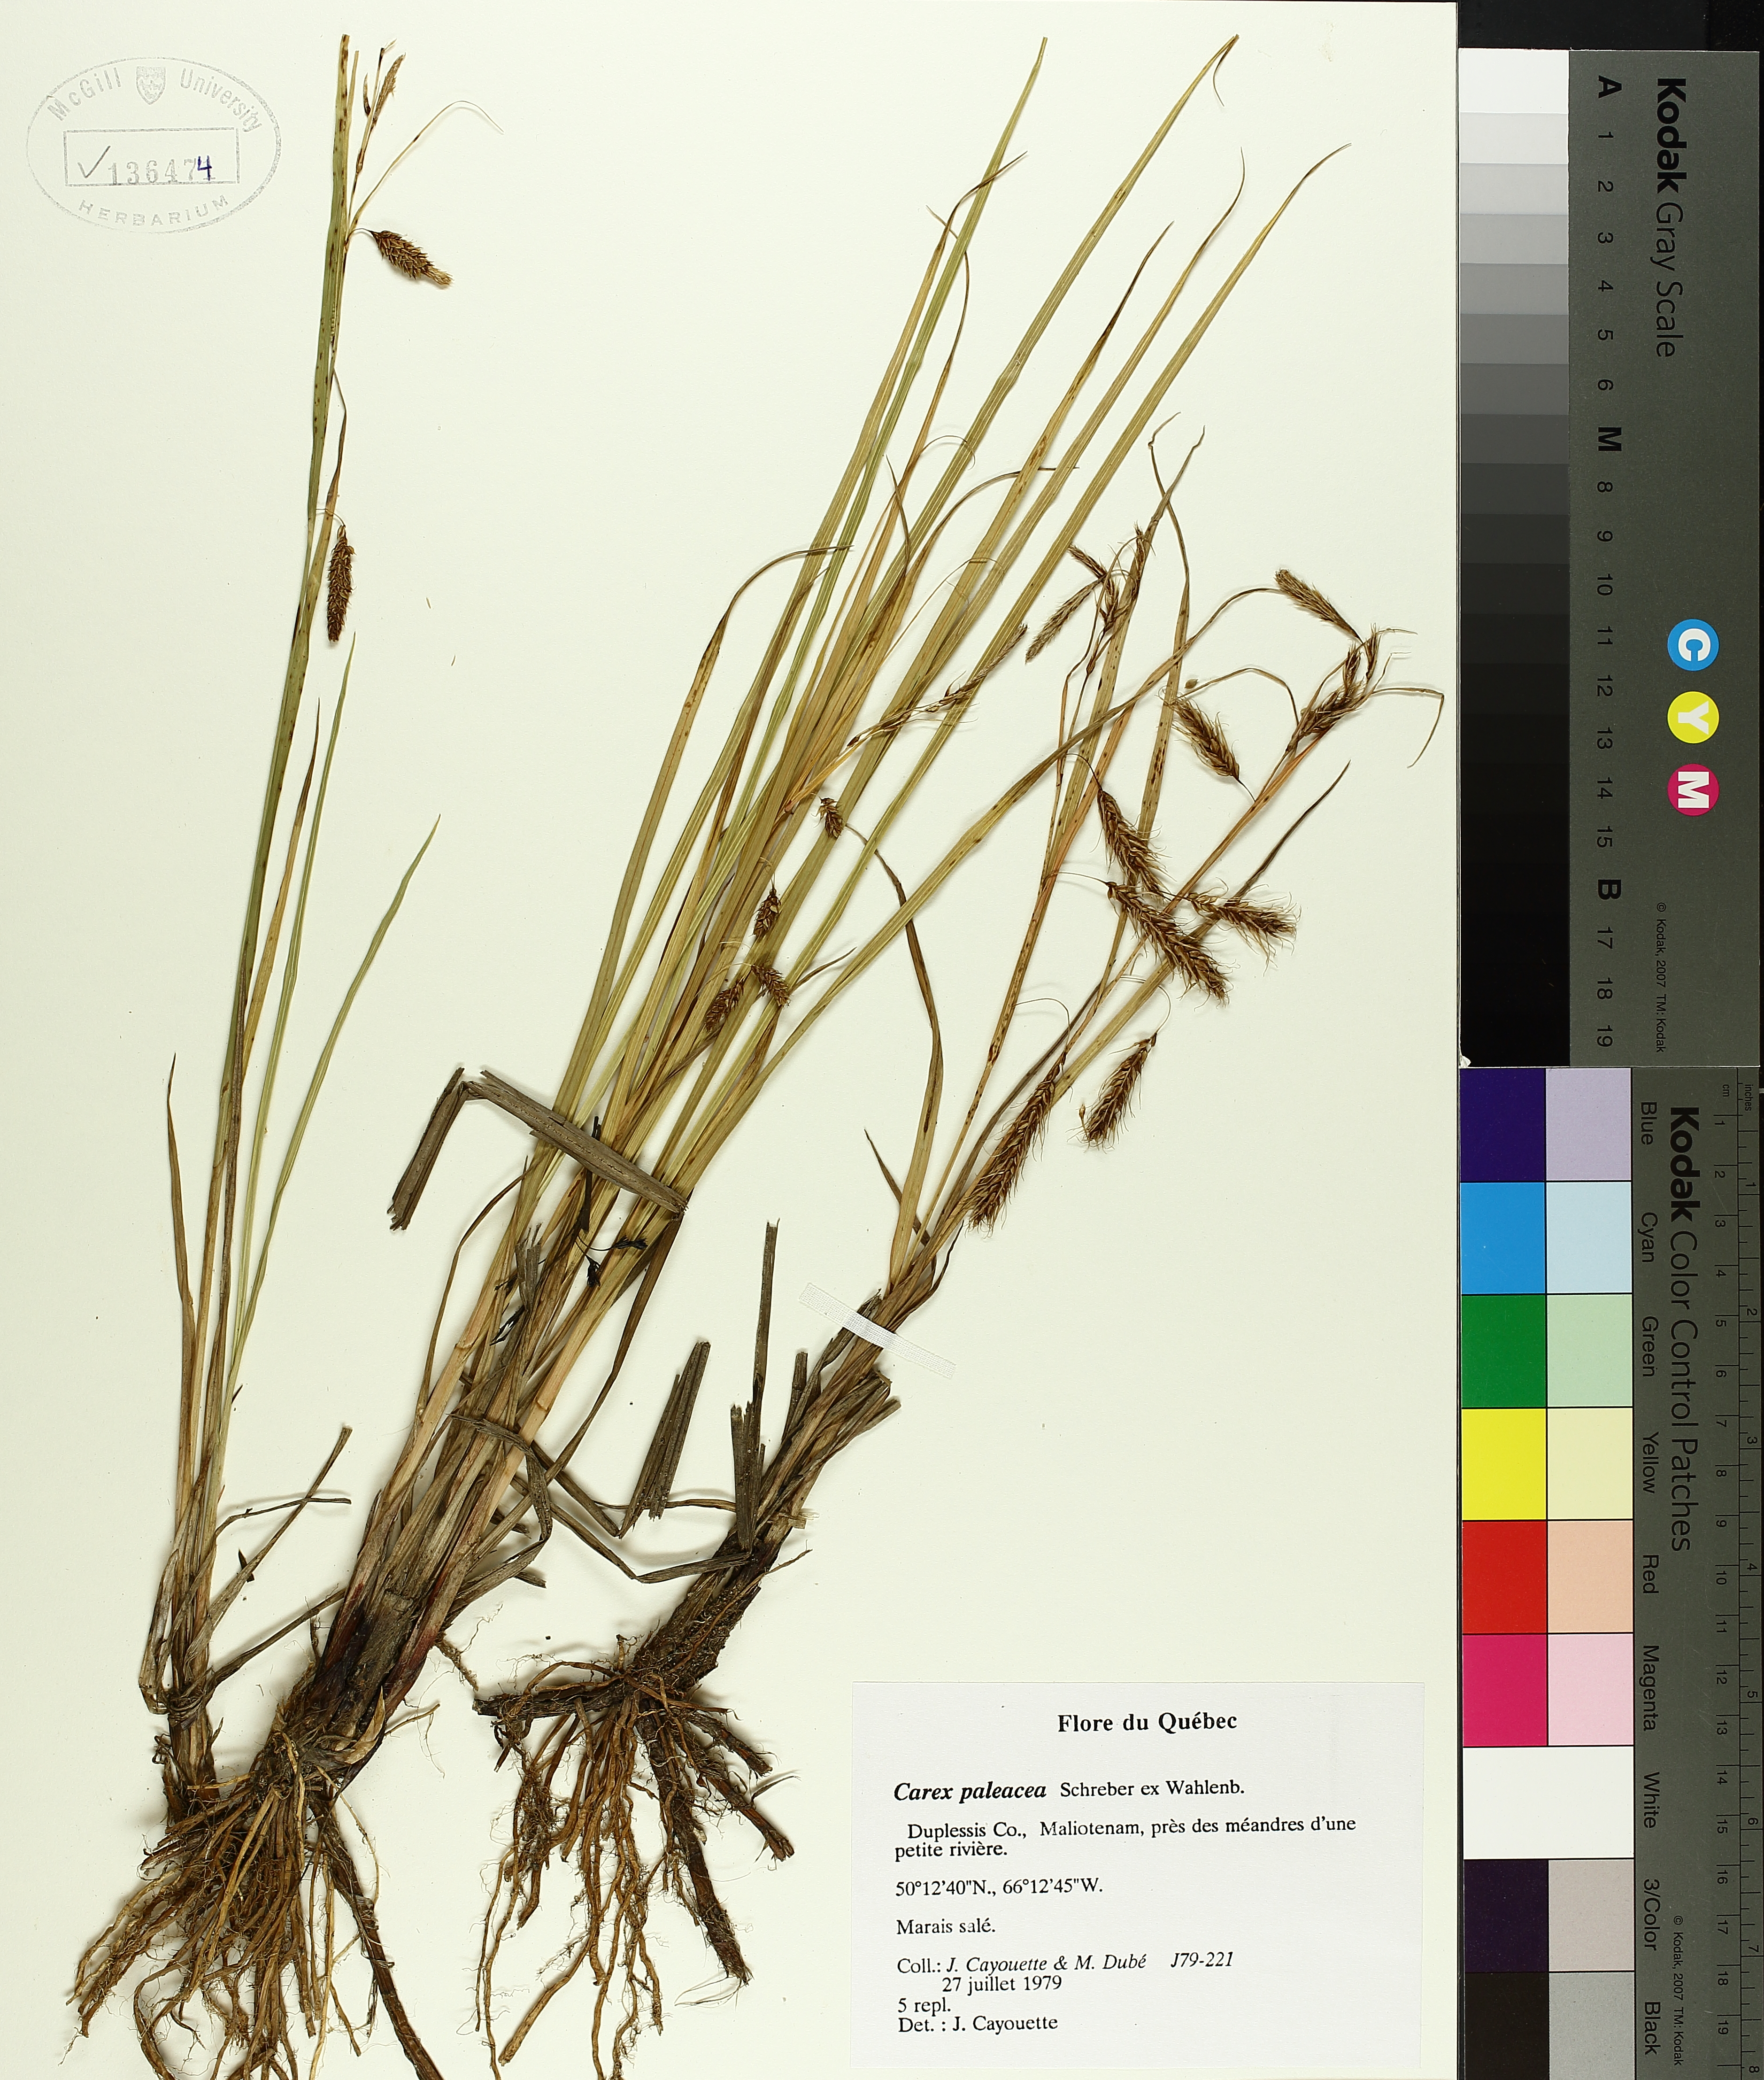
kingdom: Plantae
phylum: Tracheophyta
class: Liliopsida
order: Poales
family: Cyperaceae
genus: Carex
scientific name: Carex paleacea
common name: Chaffy sedge
